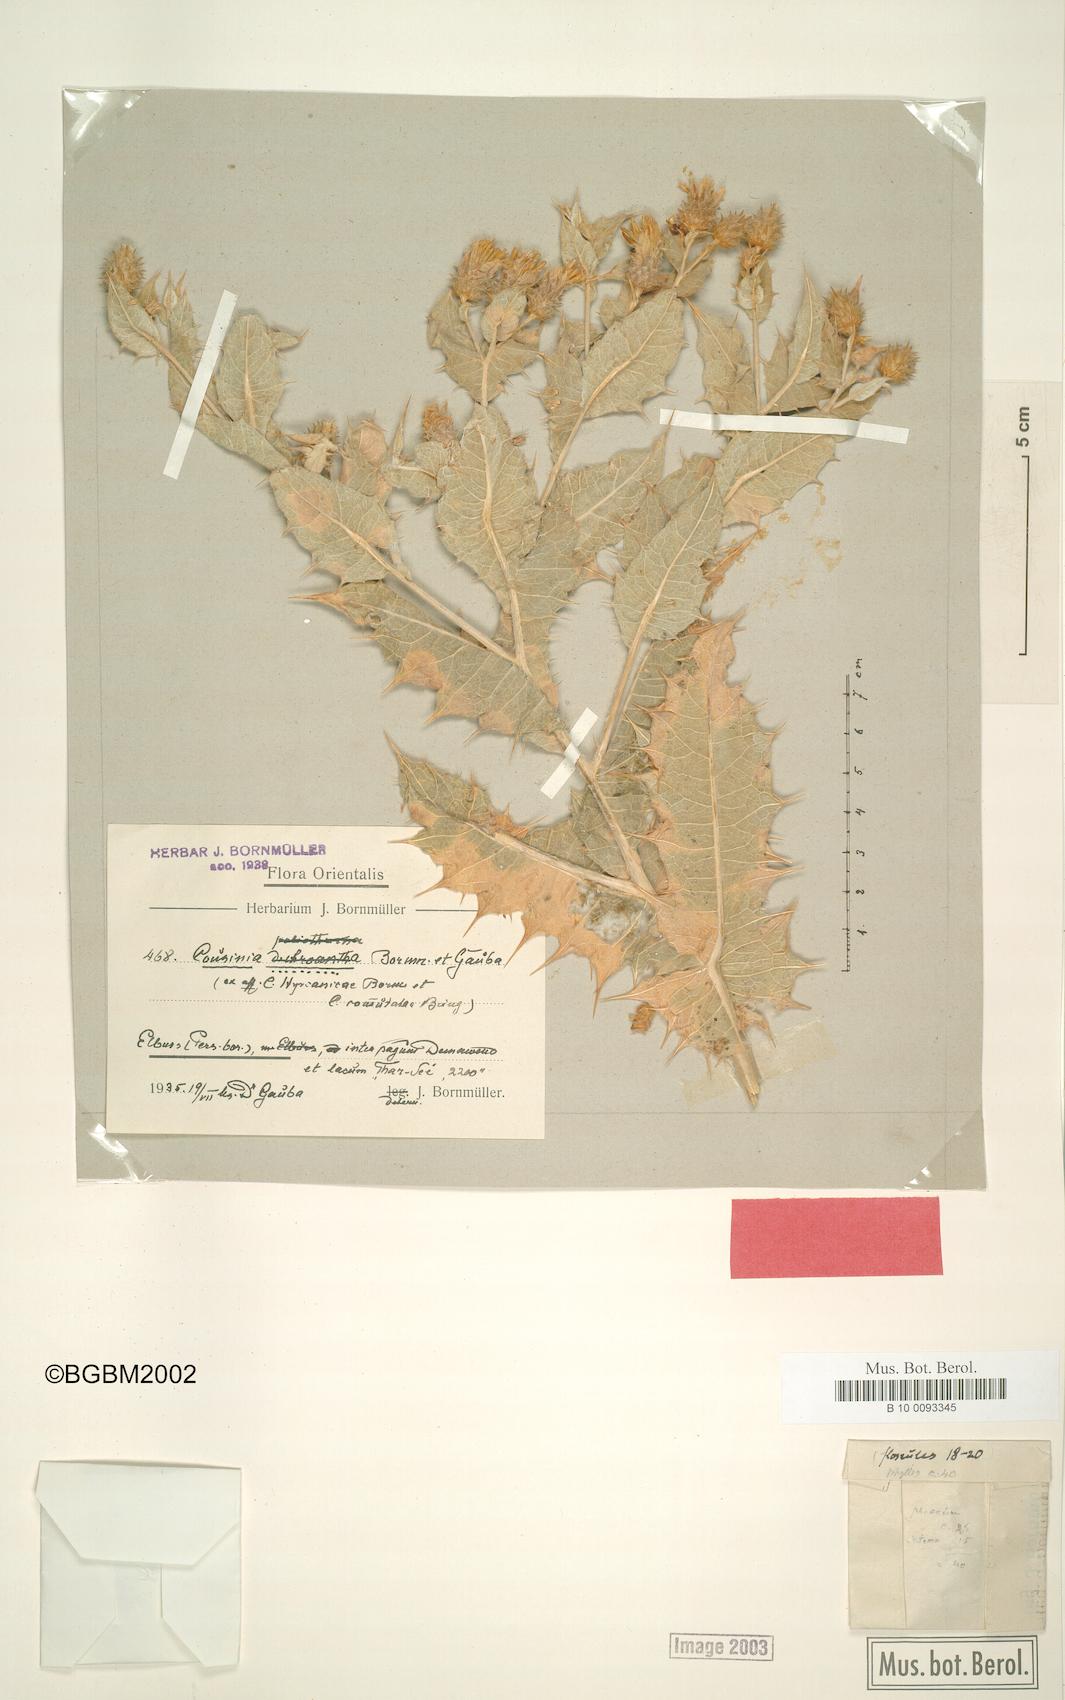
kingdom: Plantae
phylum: Tracheophyta
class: Magnoliopsida
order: Asterales
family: Asteraceae
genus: Cousinia
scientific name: Cousinia commutata
